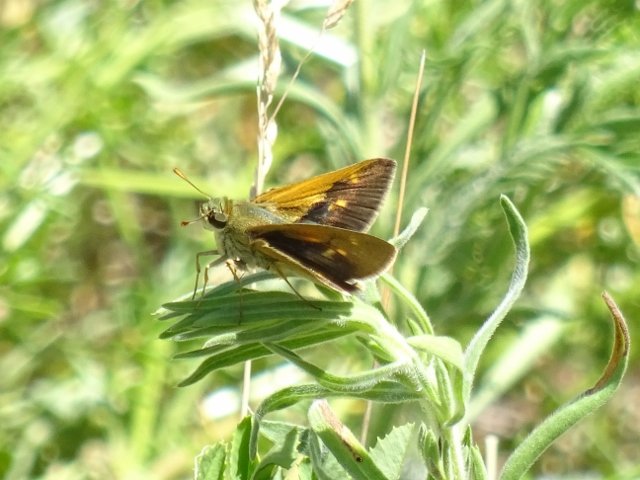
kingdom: Animalia
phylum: Arthropoda
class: Insecta
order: Lepidoptera
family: Hesperiidae
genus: Polites
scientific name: Polites themistocles
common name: Tawny-edged Skipper
